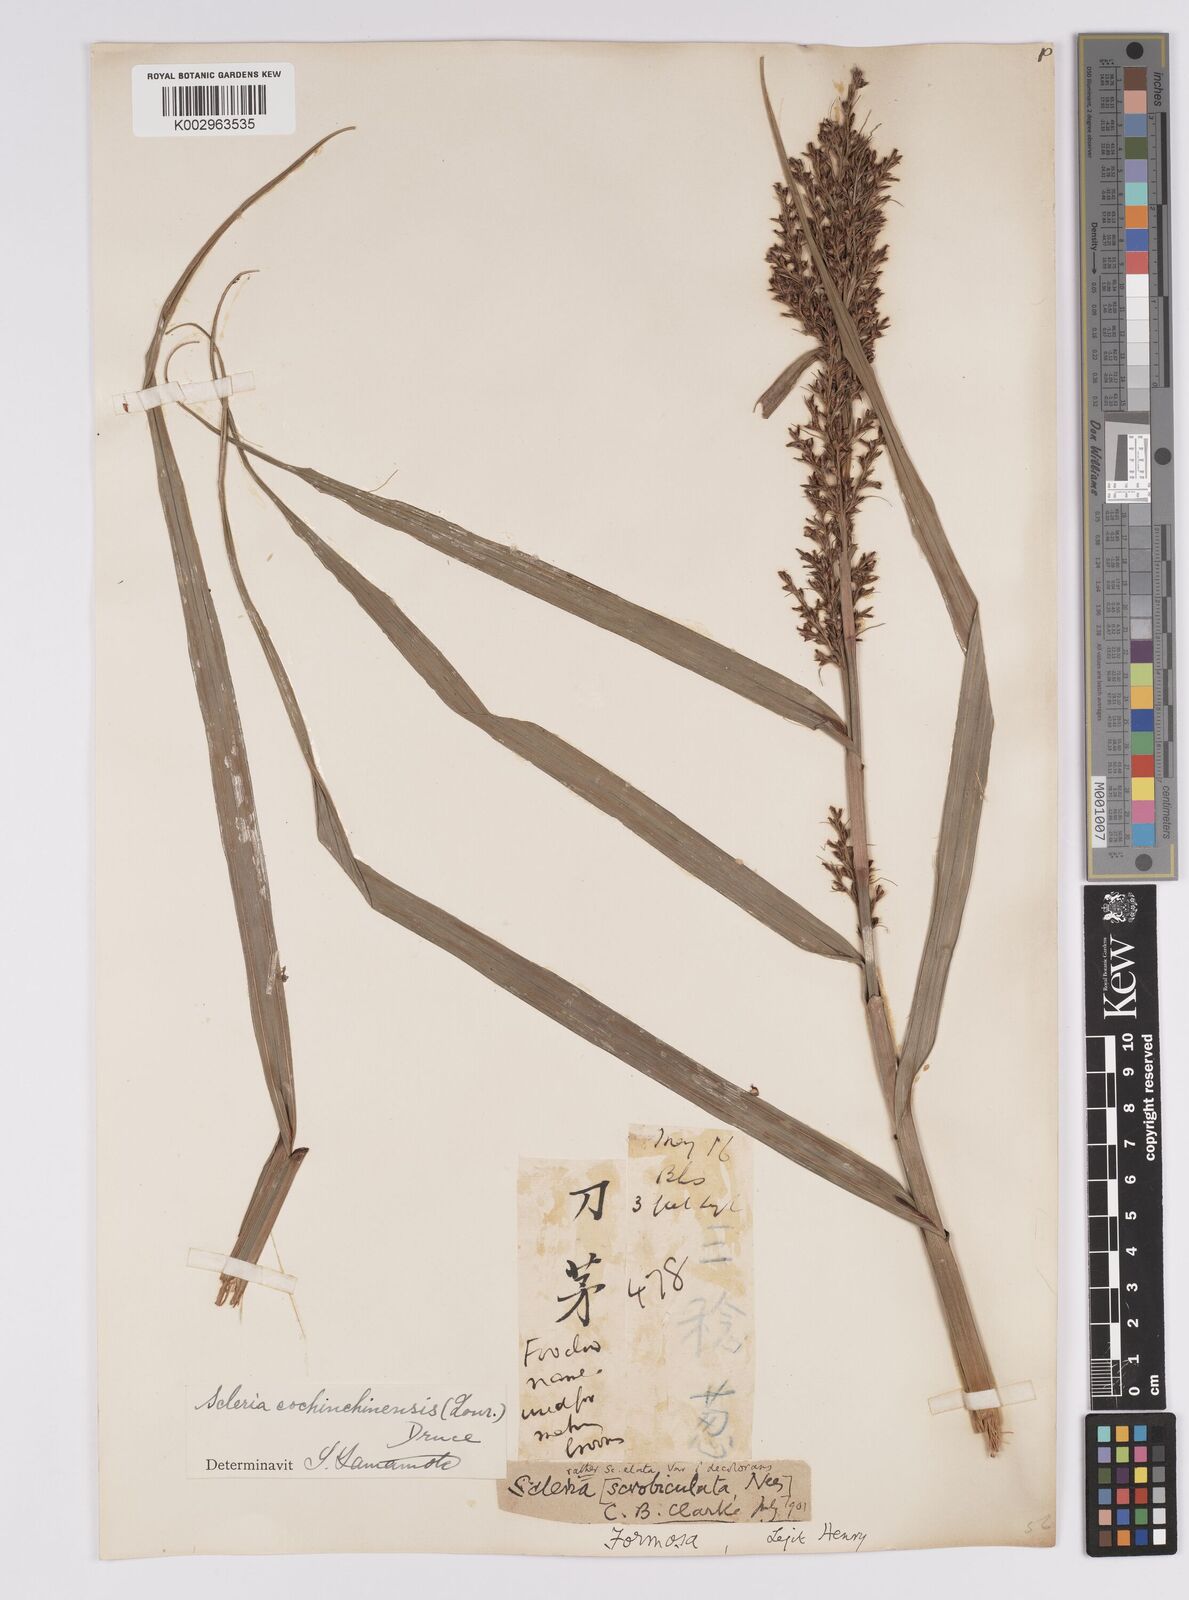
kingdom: Plantae
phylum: Tracheophyta
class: Liliopsida
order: Poales
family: Cyperaceae
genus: Scleria
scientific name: Scleria terrestris
